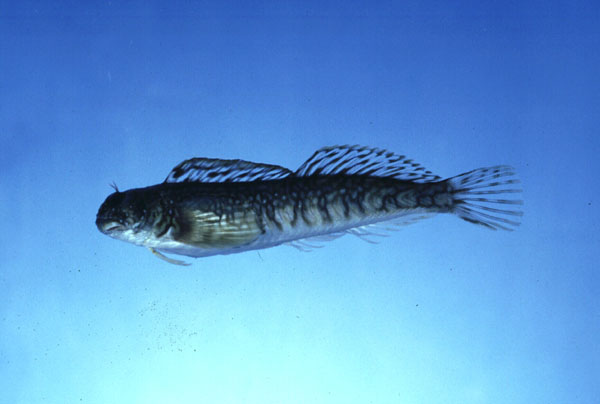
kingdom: Animalia
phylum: Chordata
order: Perciformes
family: Blenniidae
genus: Istiblennius
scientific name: Istiblennius unicolor
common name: Pallid rockskipper
